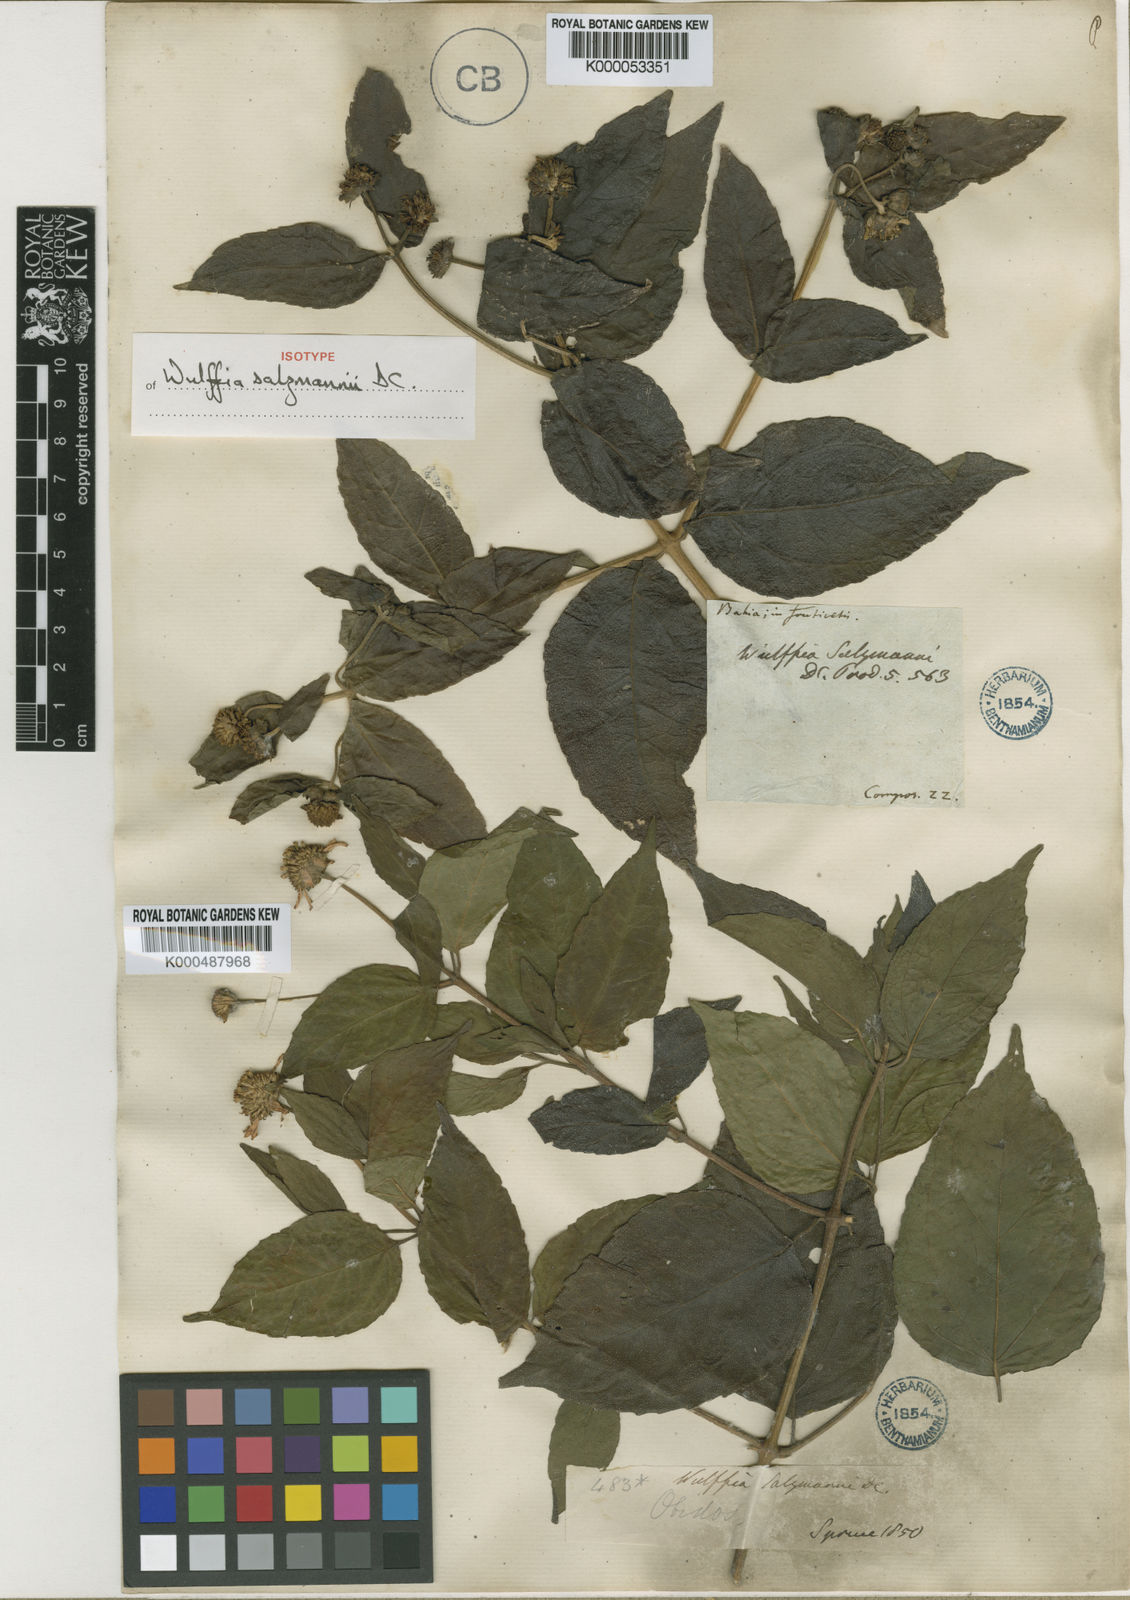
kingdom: Plantae
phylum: Tracheophyta
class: Magnoliopsida
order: Asterales
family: Asteraceae
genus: Tilesia
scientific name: Tilesia baccata
